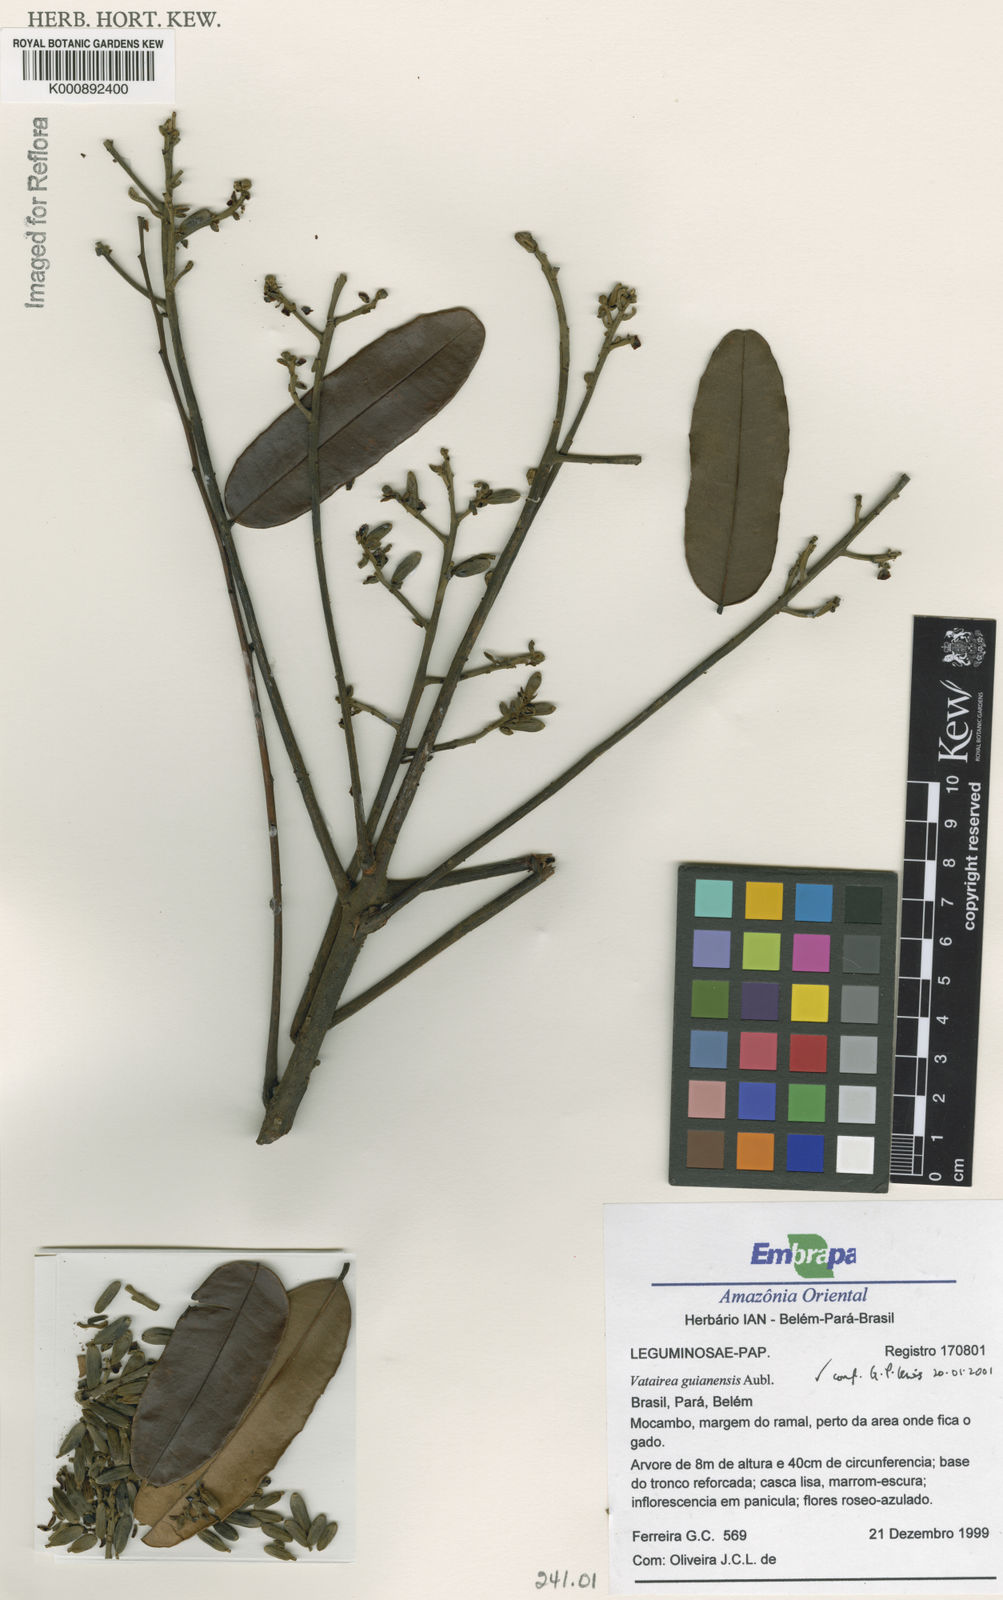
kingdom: Plantae
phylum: Tracheophyta
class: Magnoliopsida
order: Fabales
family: Fabaceae
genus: Vatairea
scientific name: Vatairea guianensis
